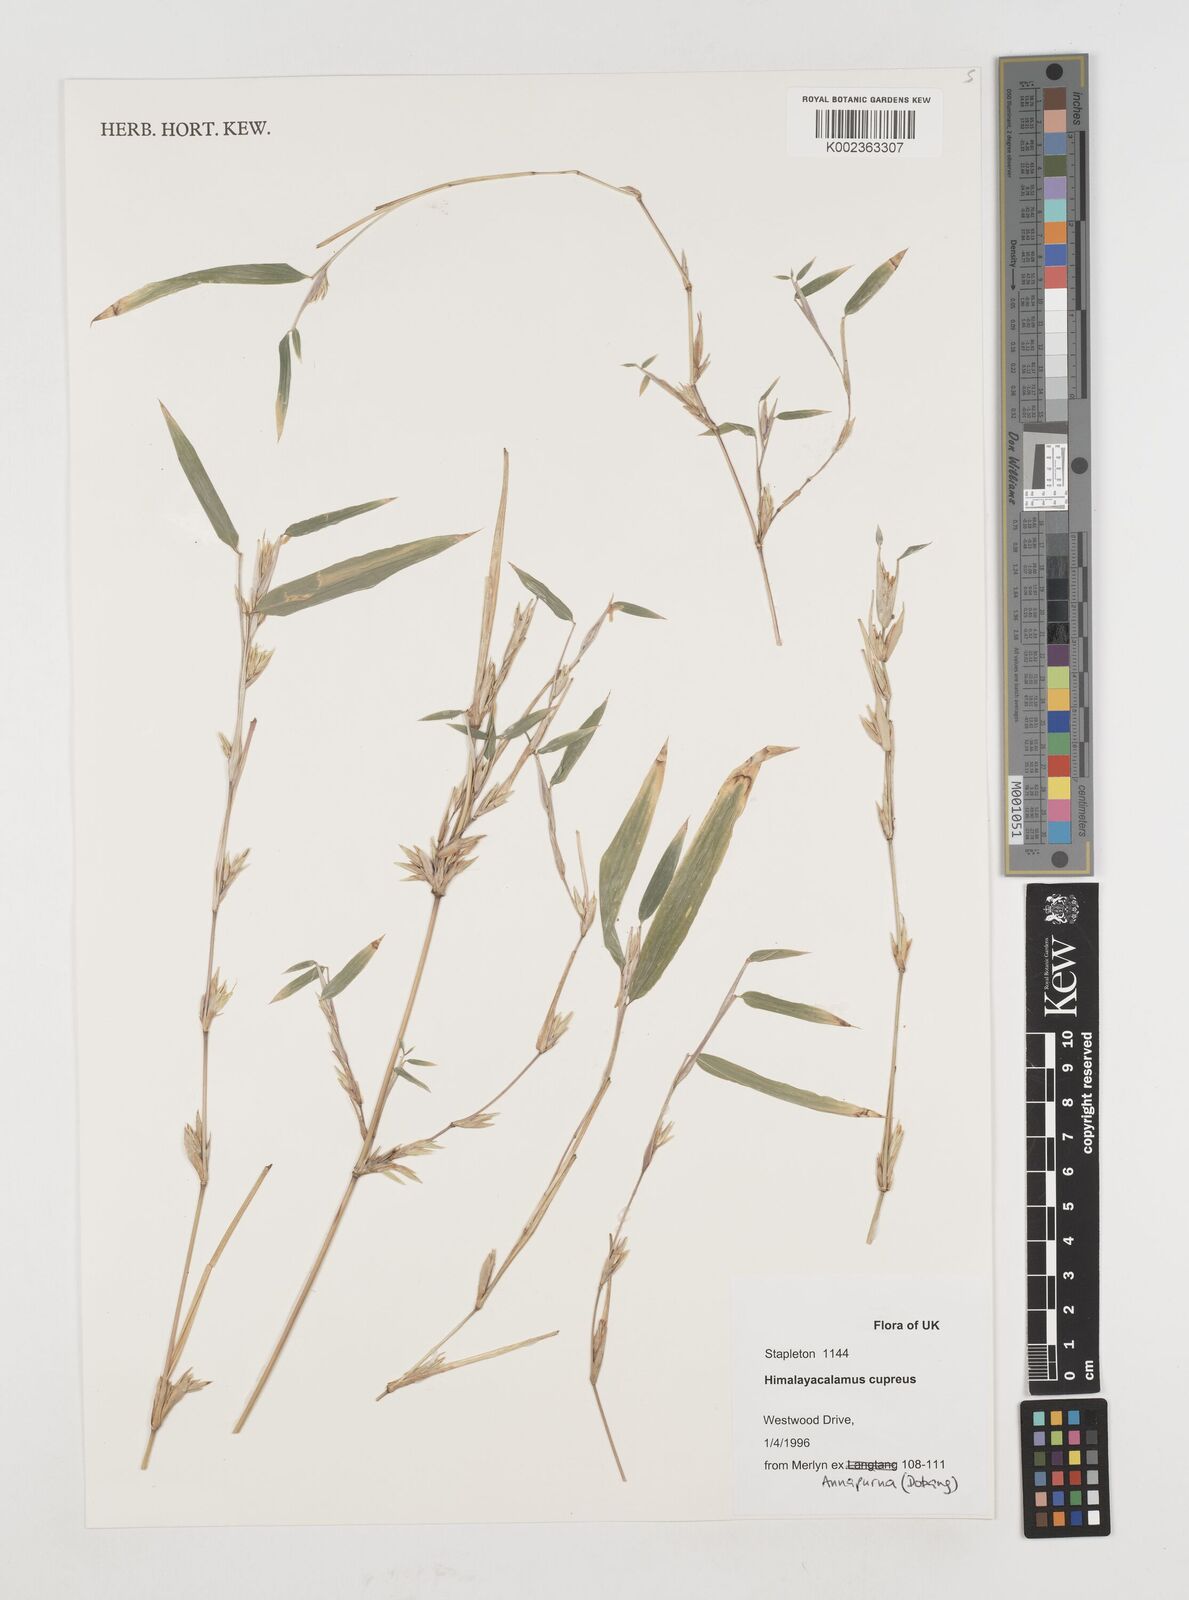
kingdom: Plantae
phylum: Tracheophyta
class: Liliopsida
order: Poales
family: Poaceae
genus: Himalayacalamus
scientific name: Himalayacalamus cupreus
